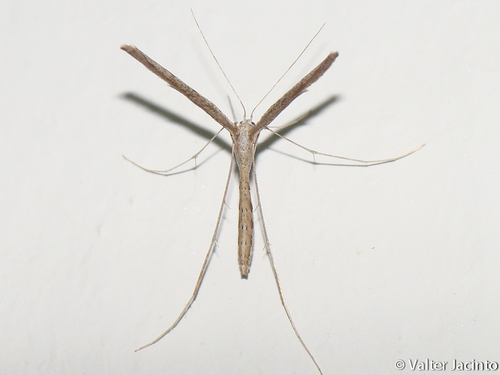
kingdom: Animalia
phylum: Arthropoda
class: Insecta
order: Lepidoptera
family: Pterophoridae
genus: Agdistis
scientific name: Agdistis
